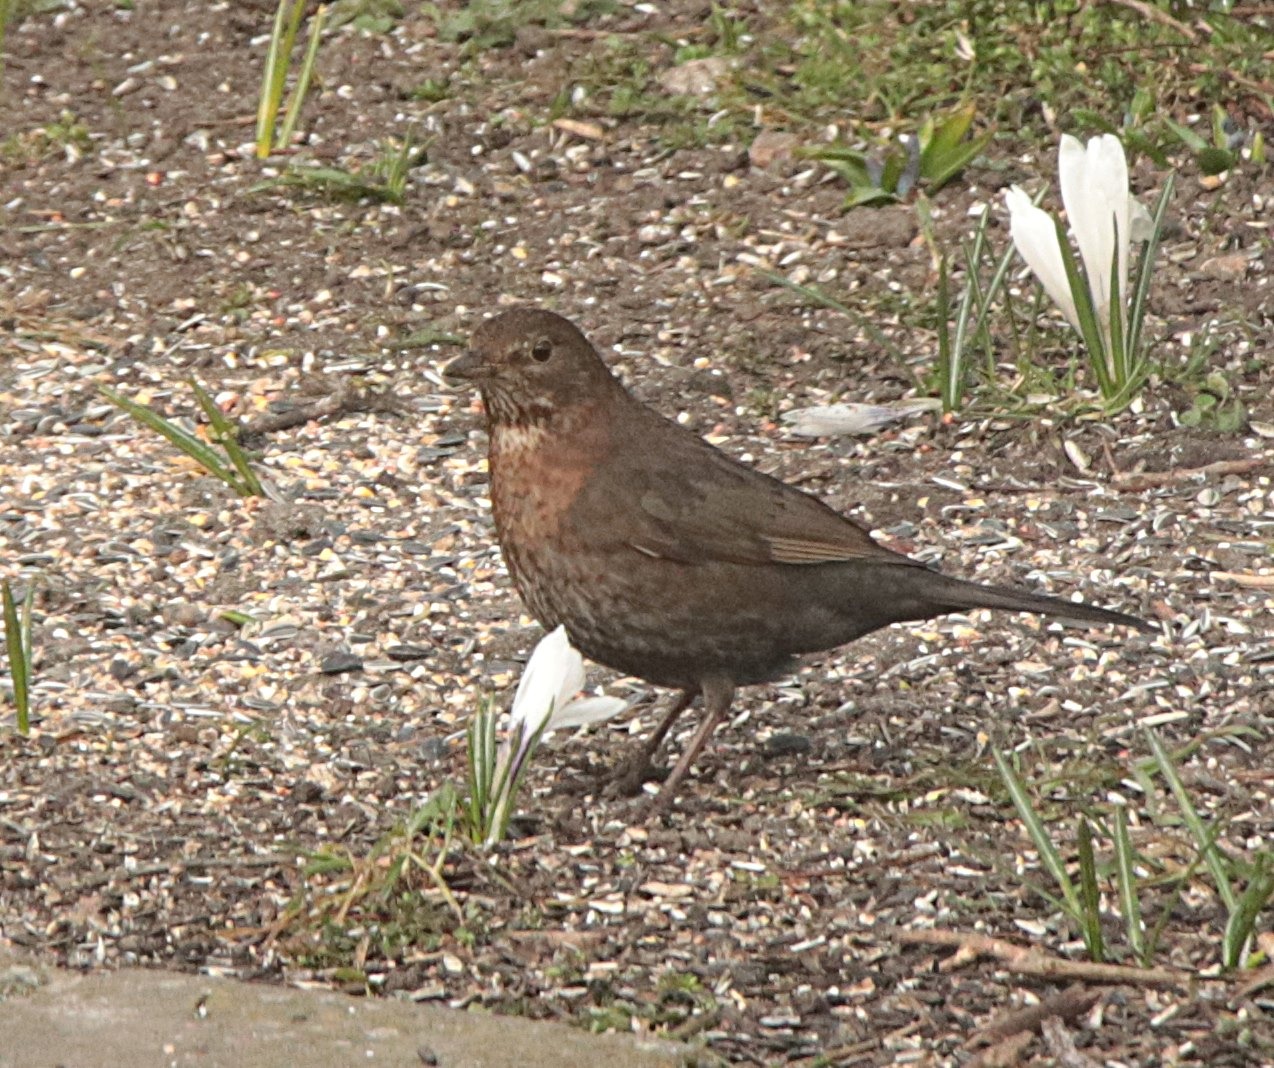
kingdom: Animalia
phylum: Chordata
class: Aves
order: Passeriformes
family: Turdidae
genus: Turdus
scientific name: Turdus merula
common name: Solsort
